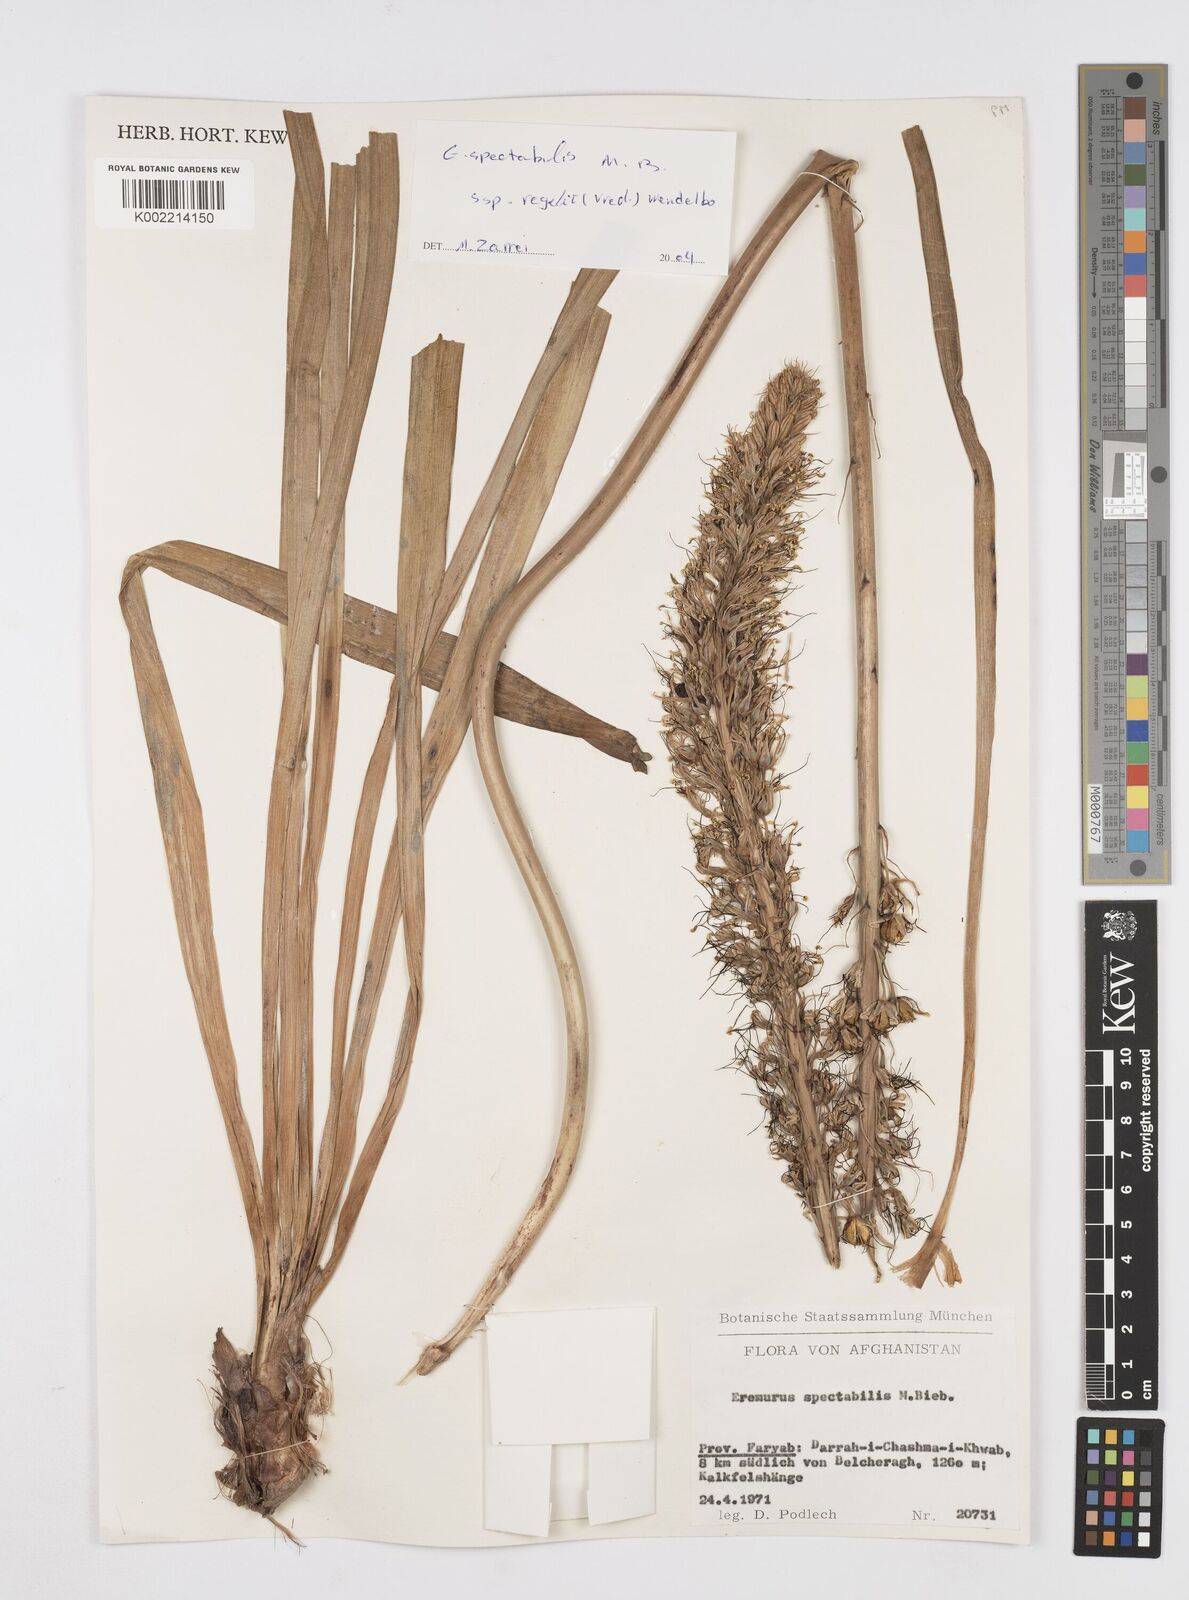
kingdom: Plantae
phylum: Tracheophyta
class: Liliopsida
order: Asparagales
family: Asphodelaceae
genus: Eremurus
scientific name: Eremurus spectabilis
